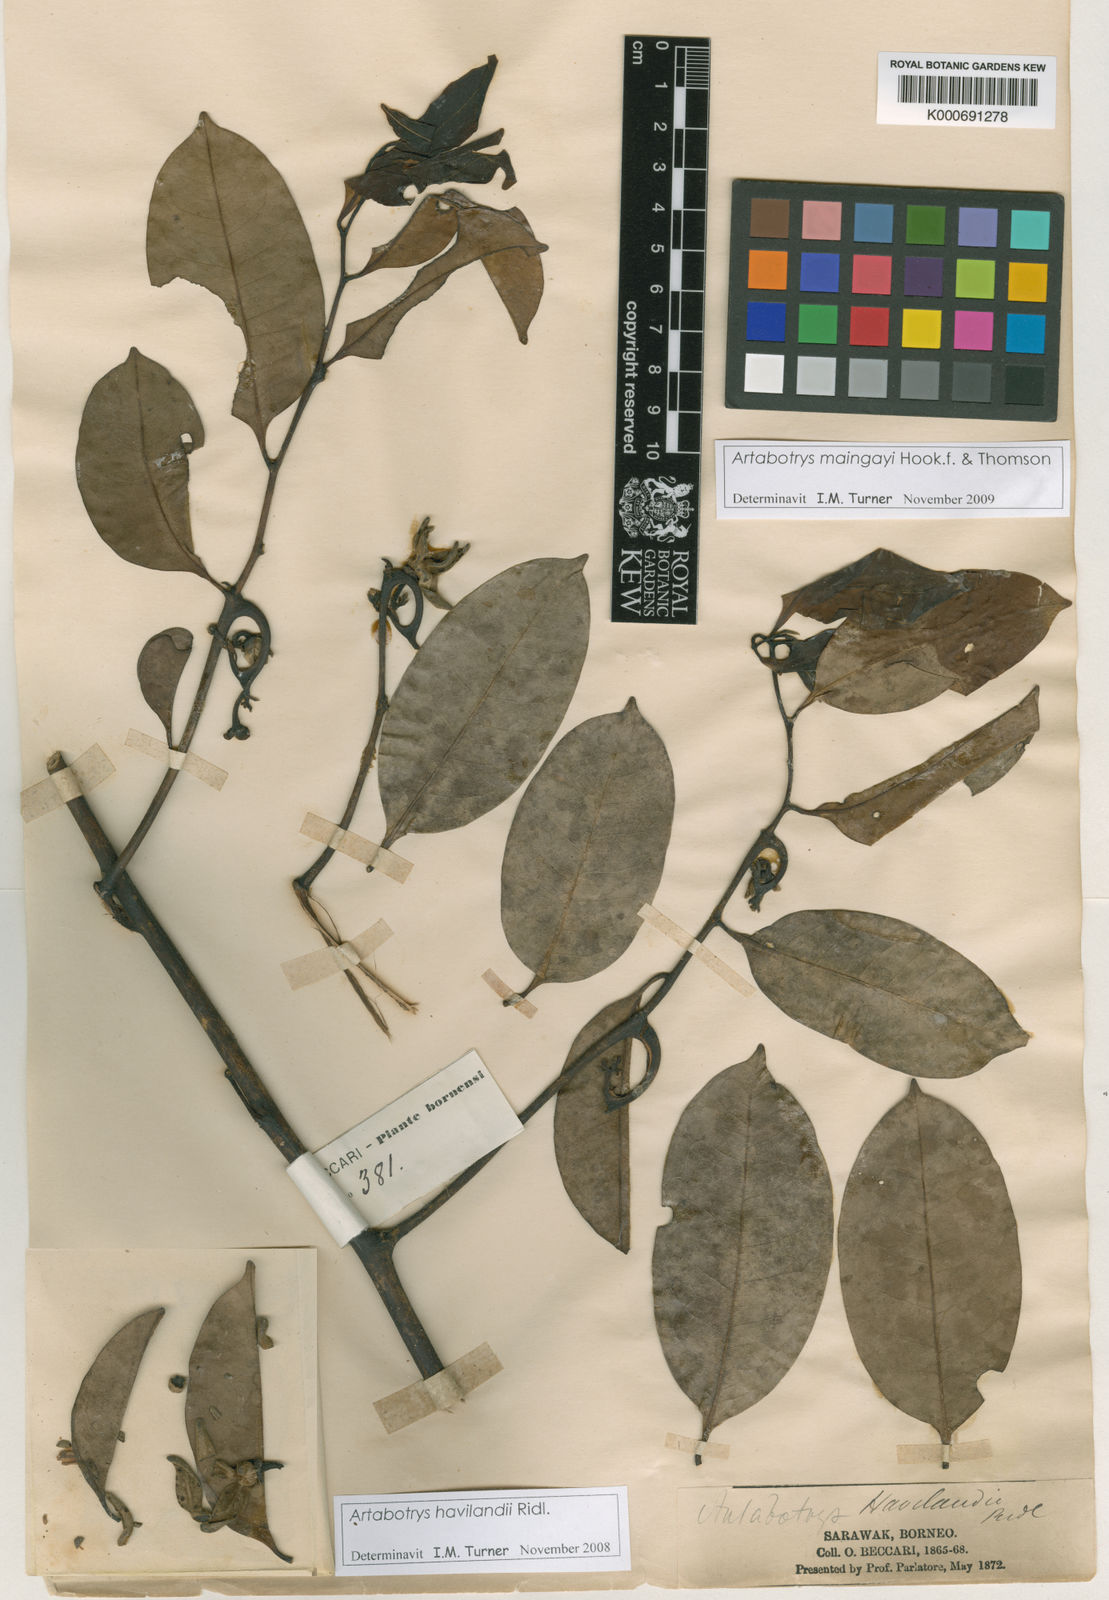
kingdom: Plantae
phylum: Tracheophyta
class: Magnoliopsida
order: Magnoliales
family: Annonaceae
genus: Artabotrys
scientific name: Artabotrys maingayi
